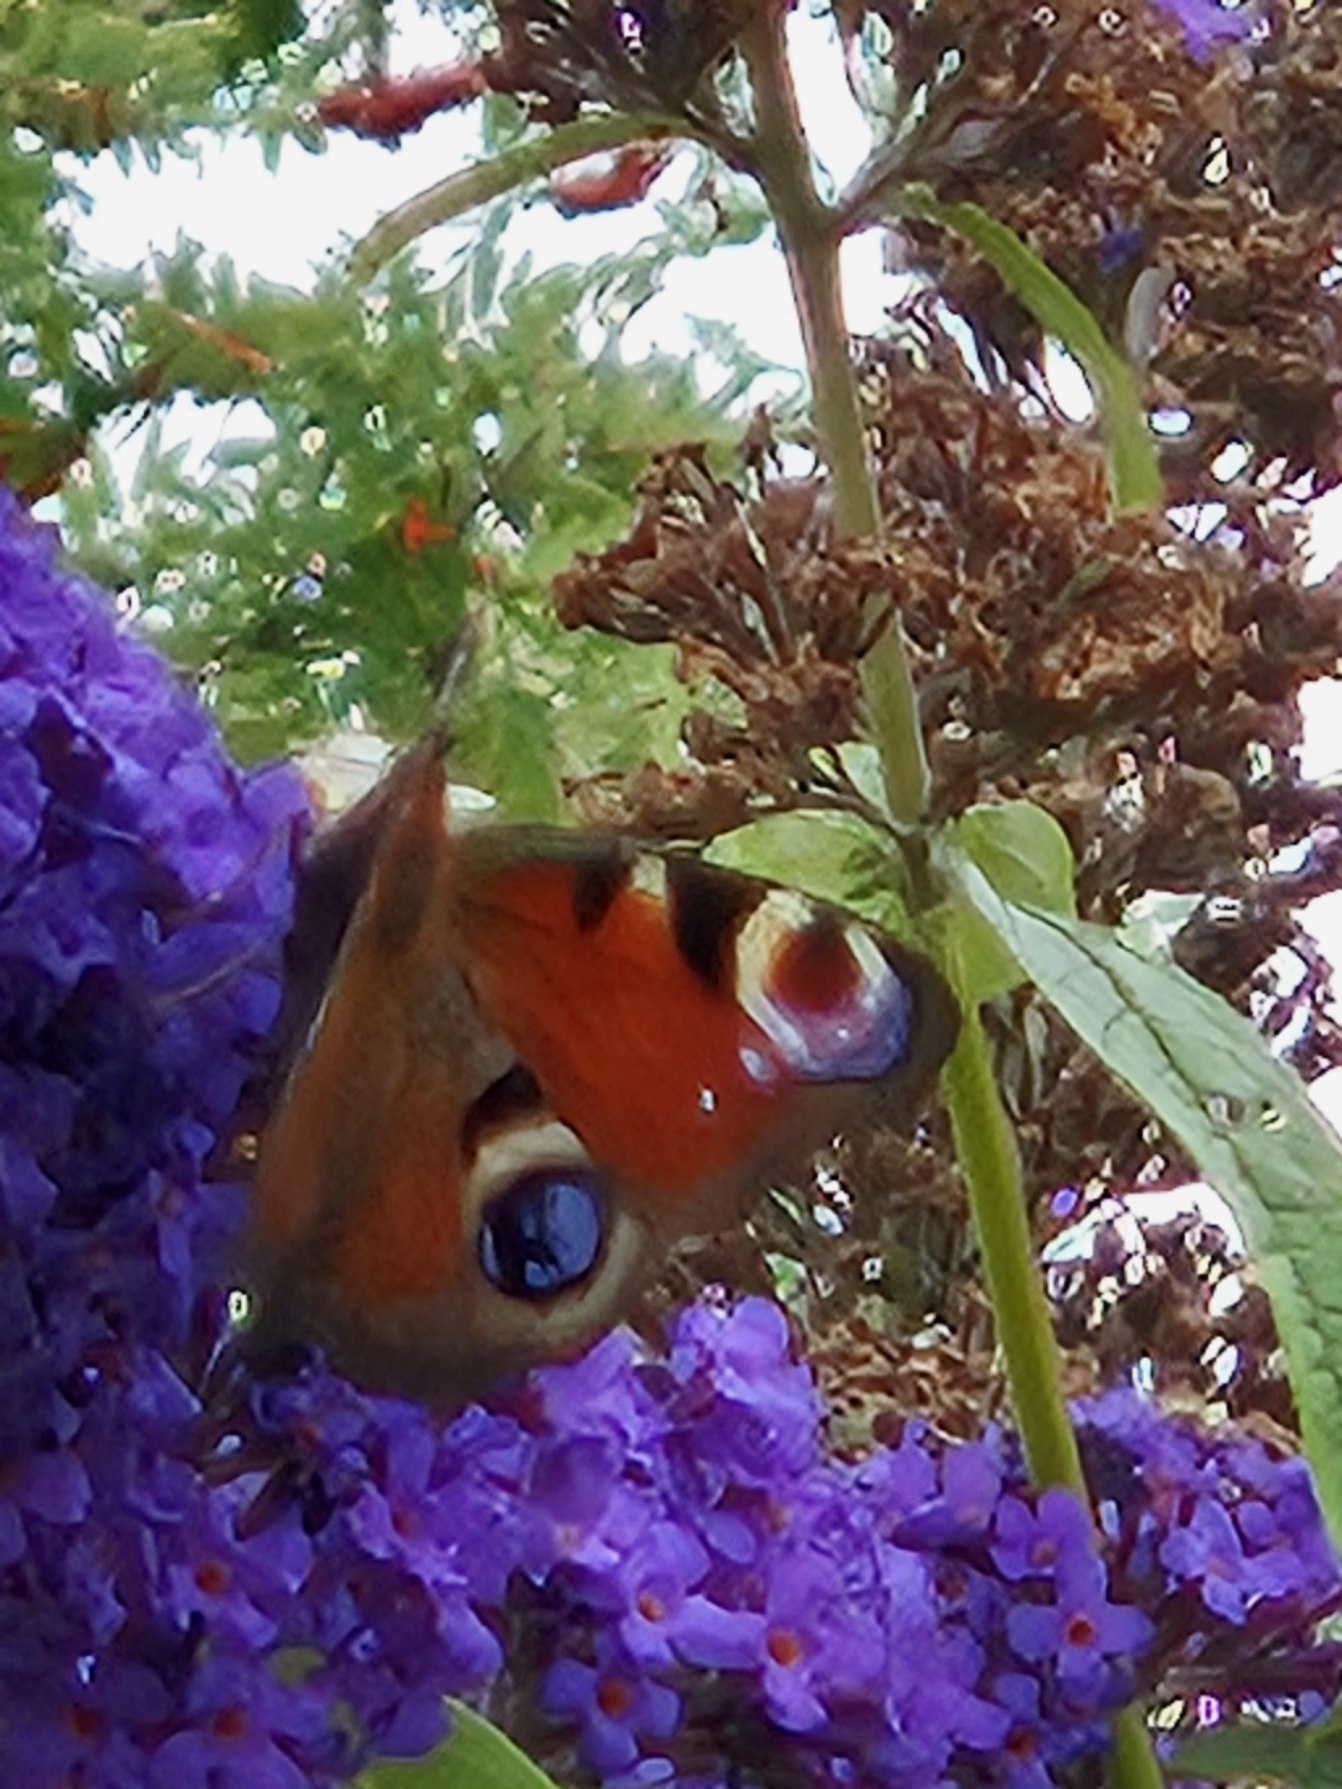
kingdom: Animalia
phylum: Arthropoda
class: Insecta
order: Lepidoptera
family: Nymphalidae
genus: Aglais
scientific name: Aglais io
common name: Dagpåfugleøje
